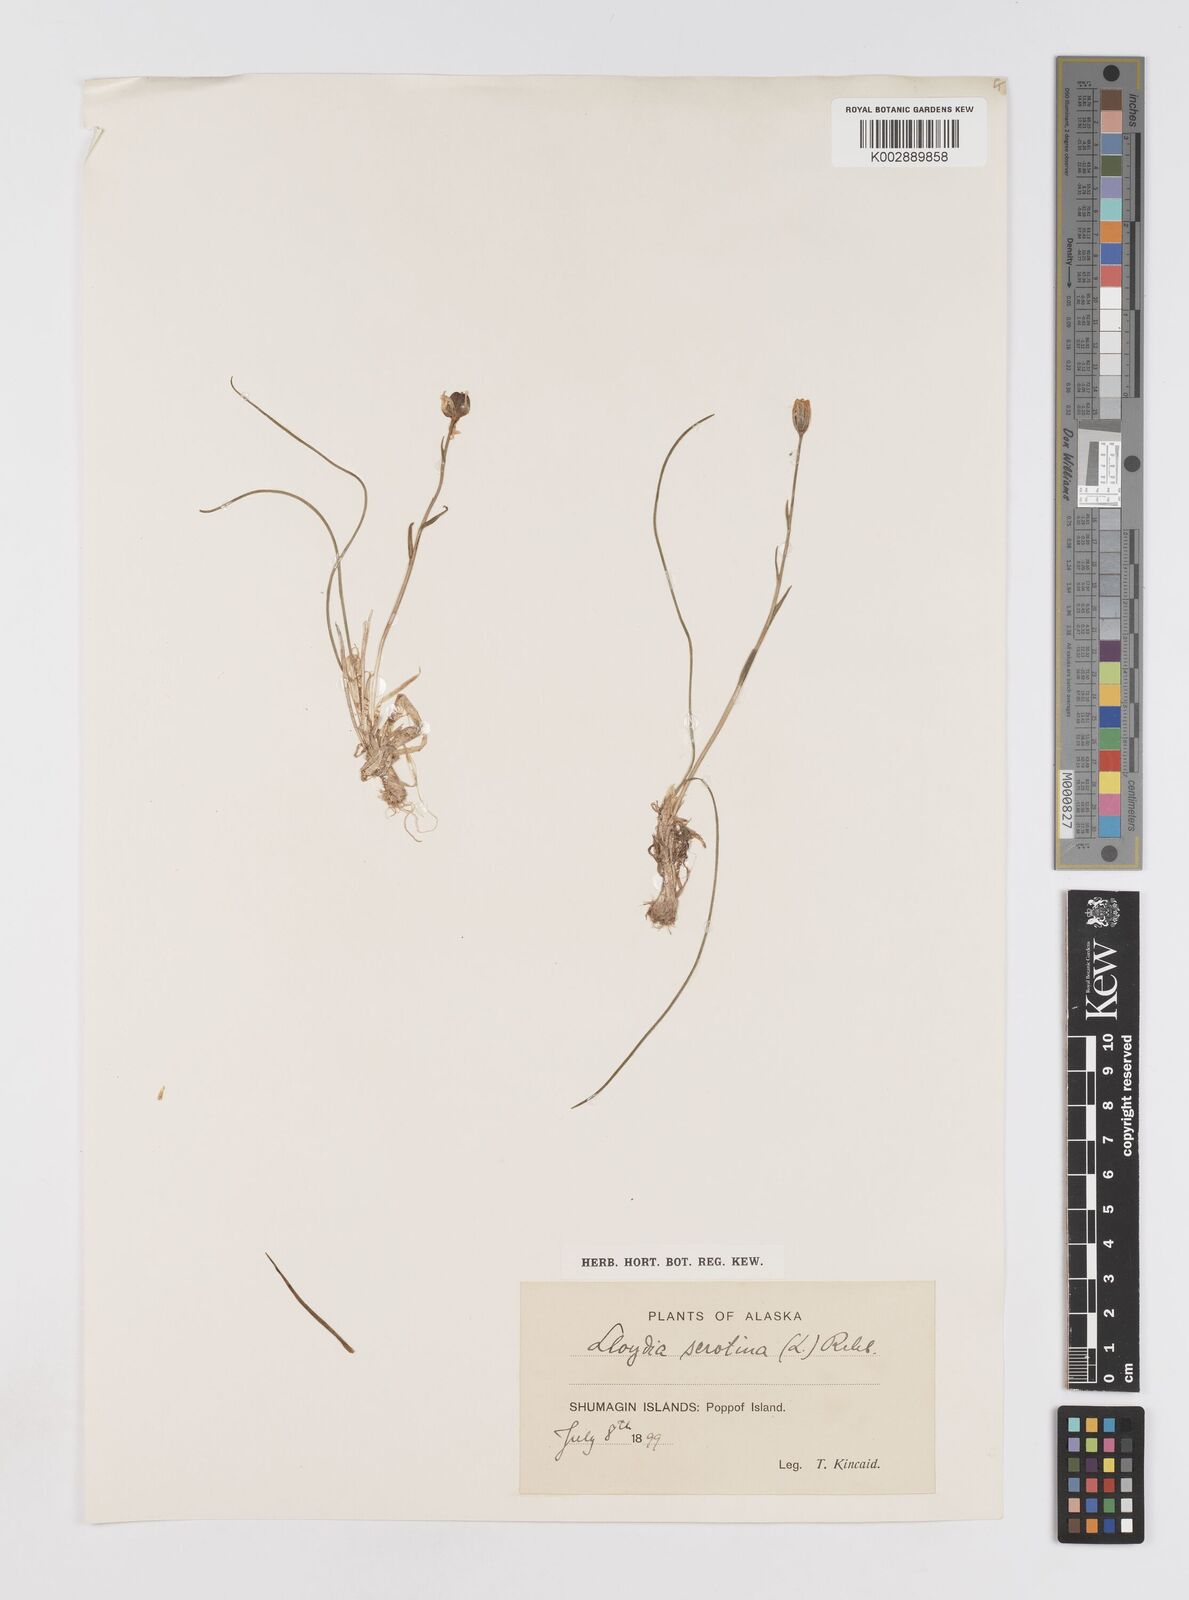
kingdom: Plantae
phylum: Tracheophyta
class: Liliopsida
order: Liliales
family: Liliaceae
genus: Gagea
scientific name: Gagea serotina
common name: Snowdon lily
